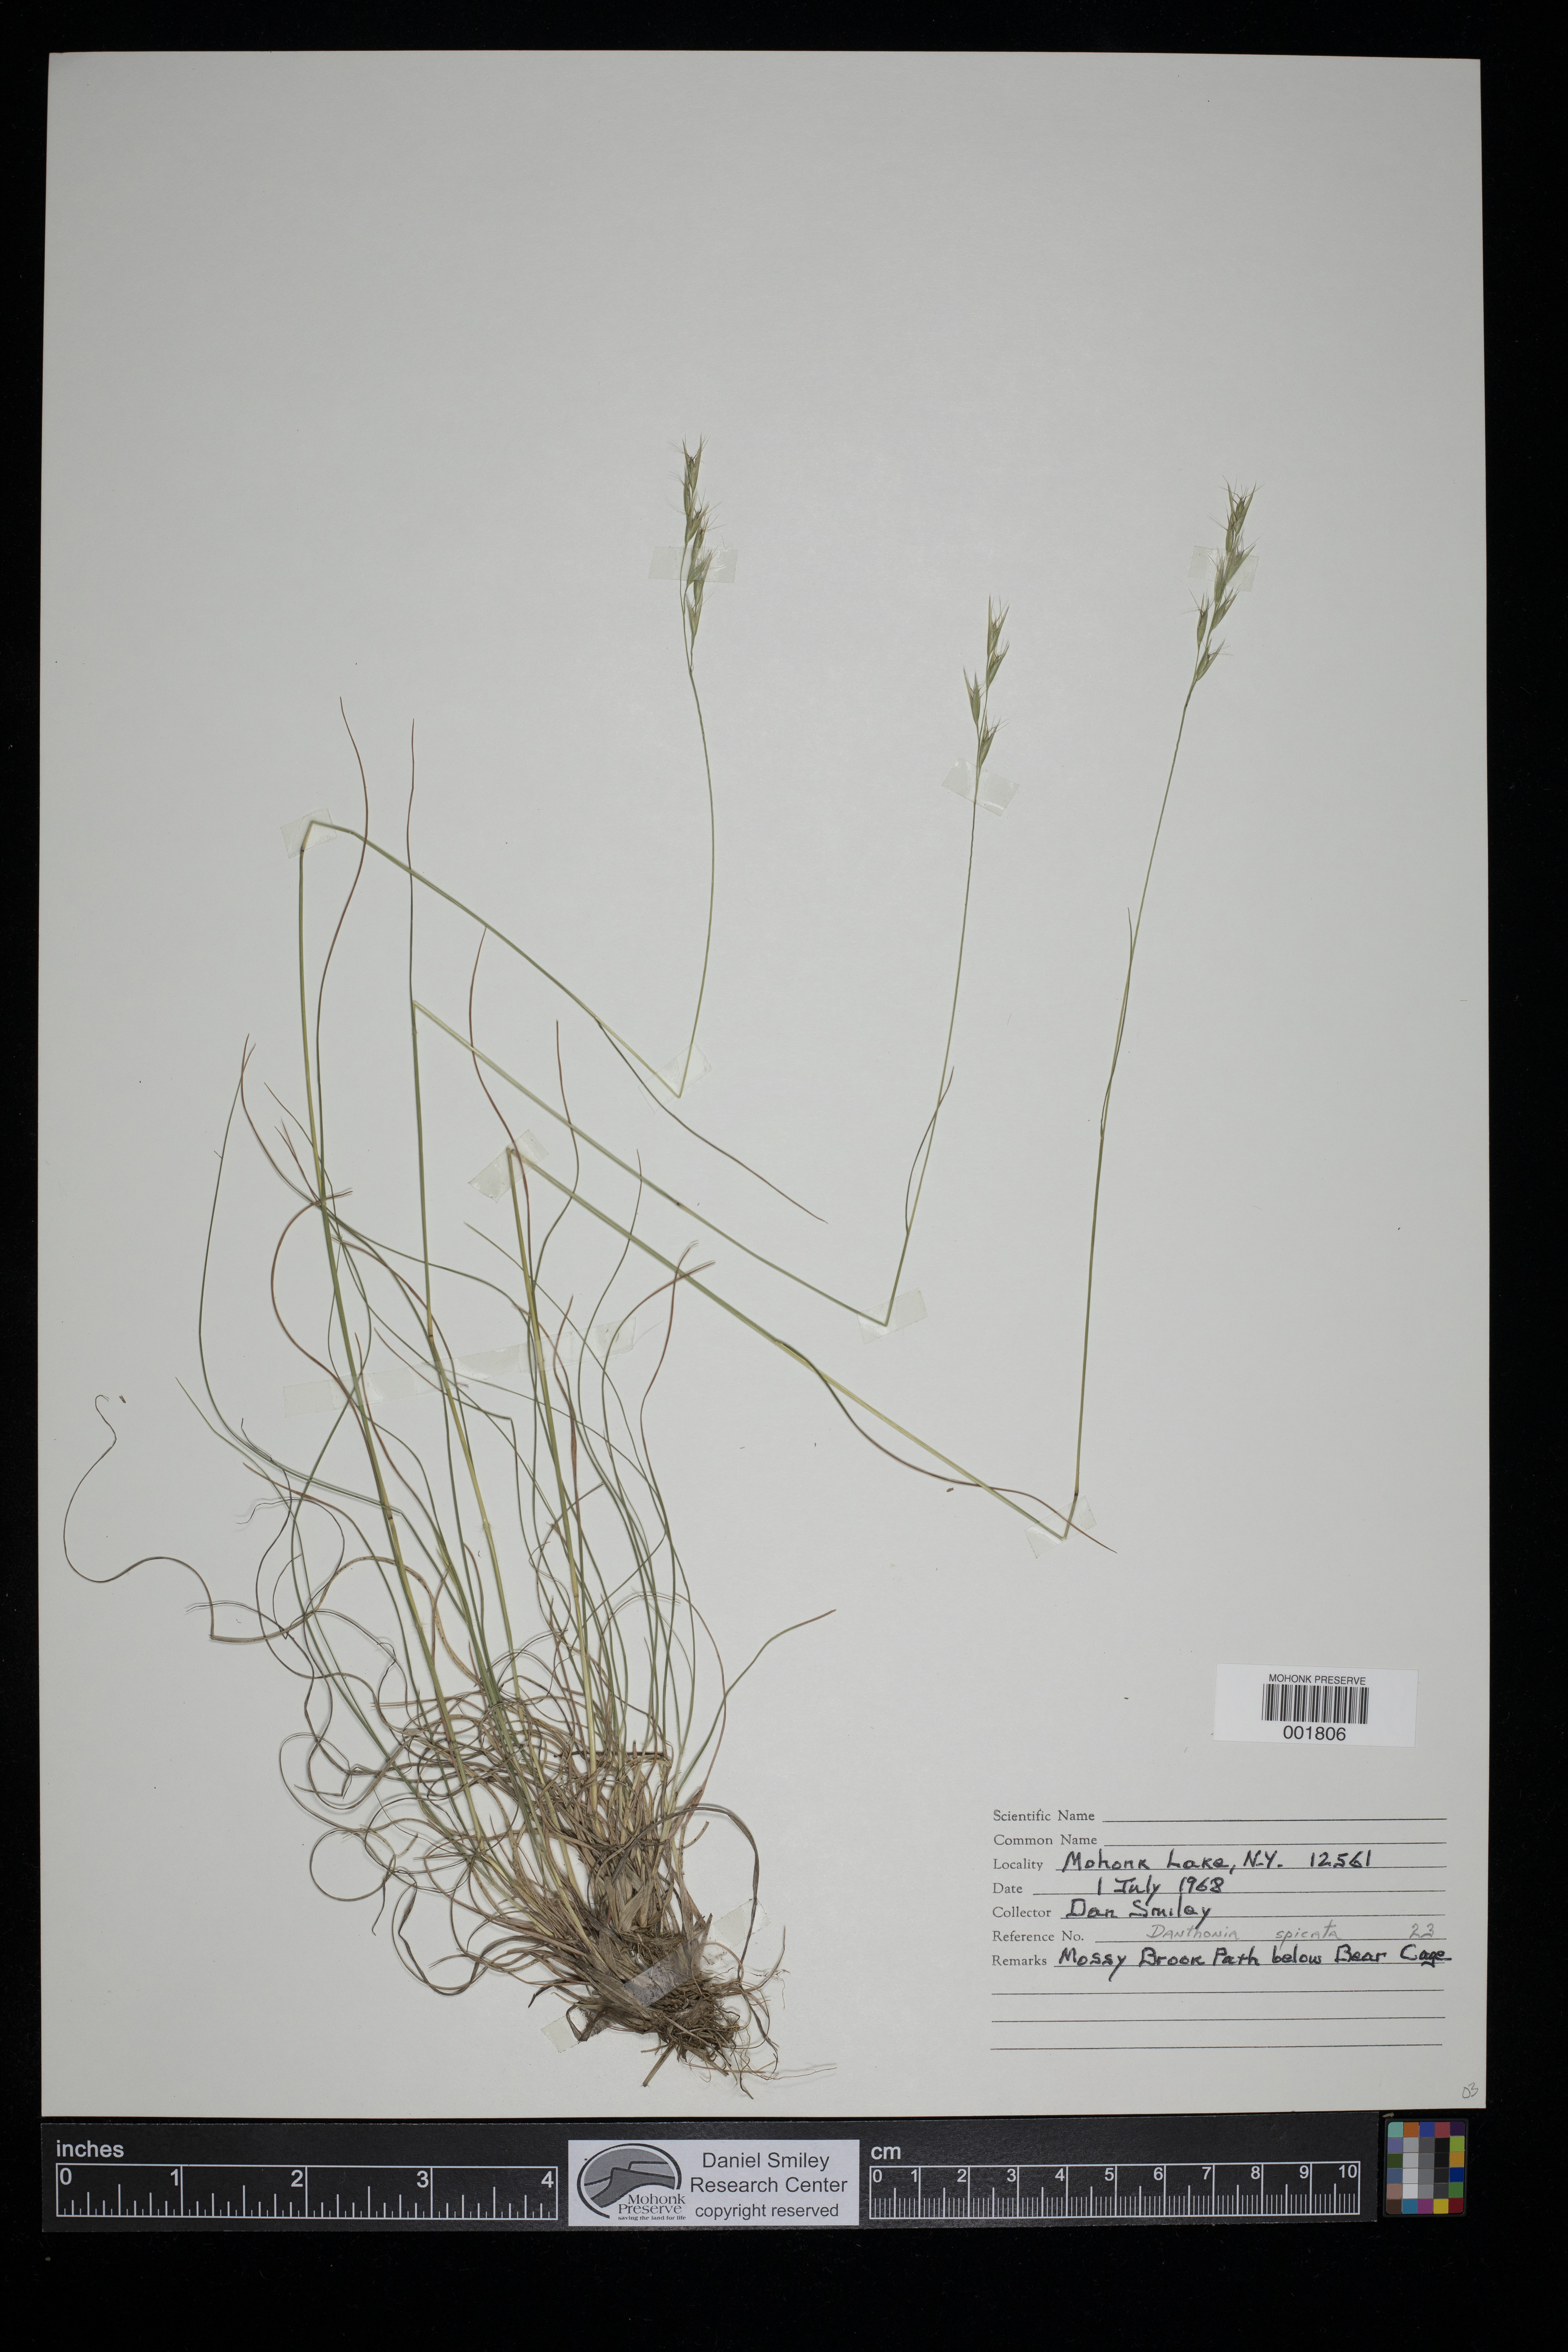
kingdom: Plantae
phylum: Tracheophyta
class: Liliopsida
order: Poales
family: Poaceae
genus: Danthonia
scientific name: Danthonia spicata
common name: Common wild oatgrass
